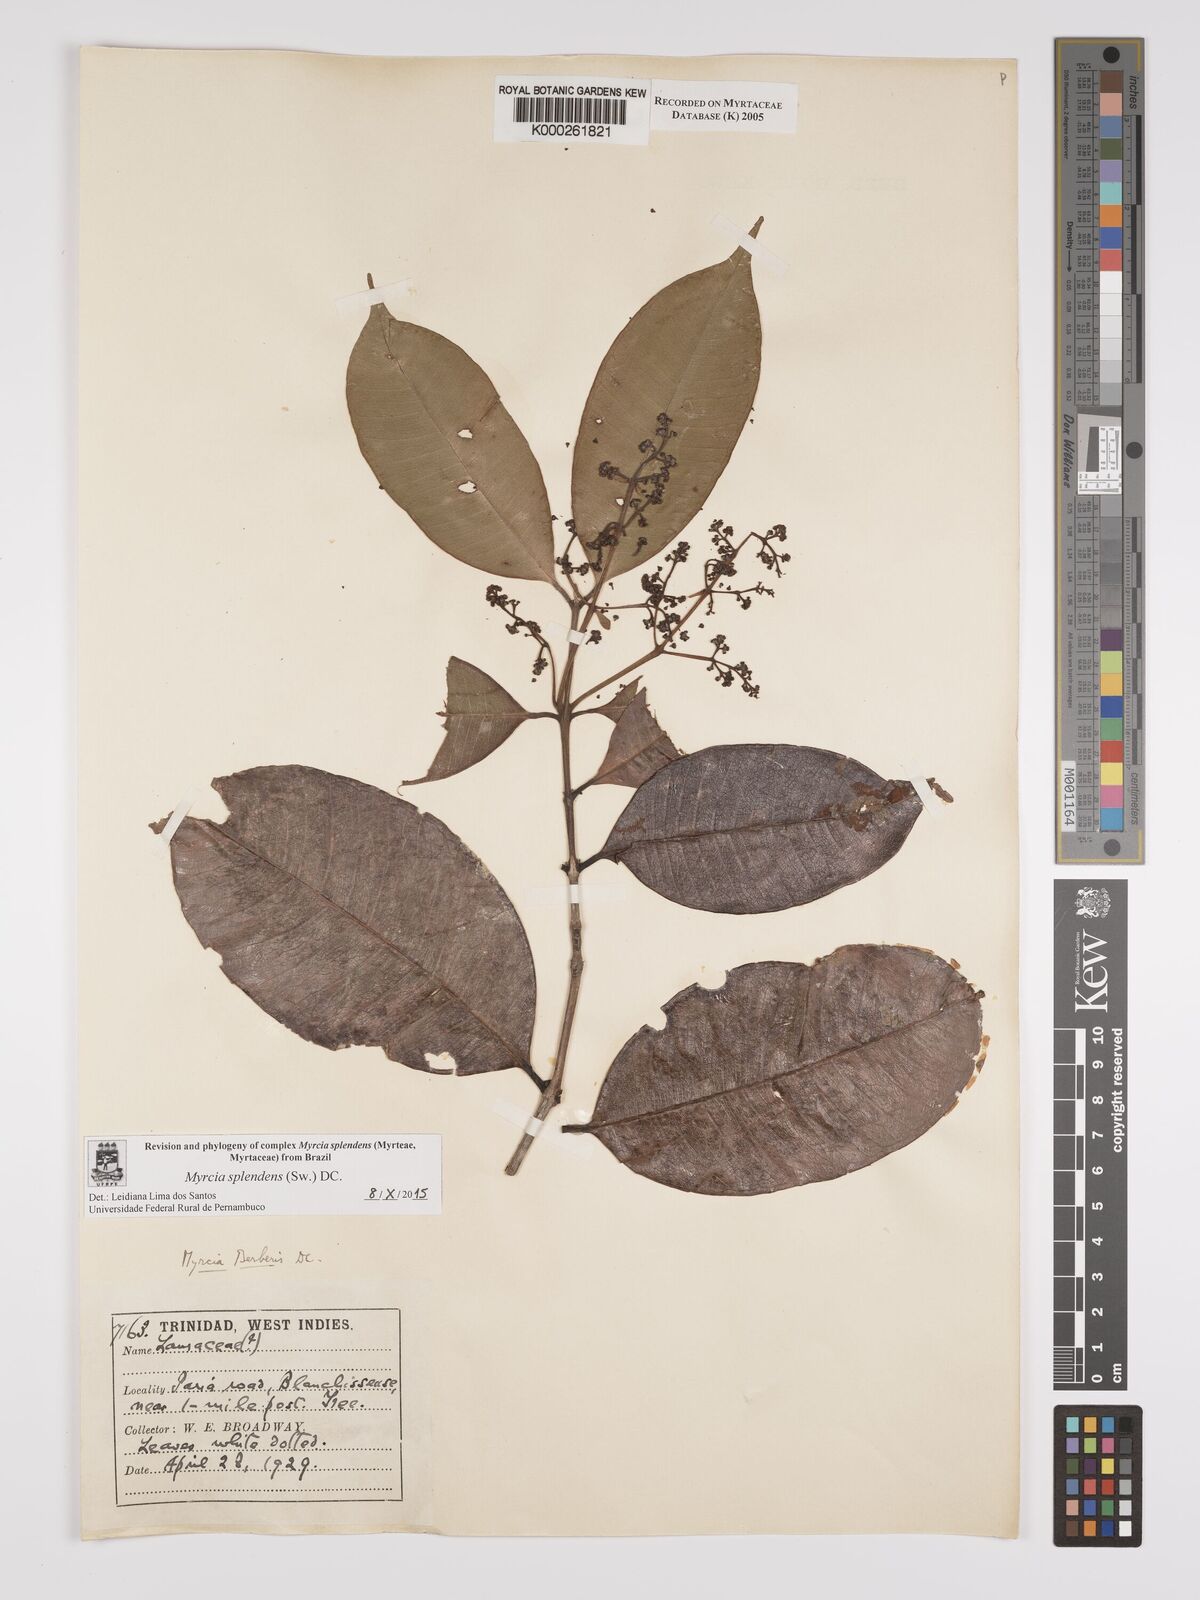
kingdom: Plantae
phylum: Tracheophyta
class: Magnoliopsida
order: Myrtales
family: Myrtaceae
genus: Myrcia
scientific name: Myrcia splendens
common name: Surinam cherry
